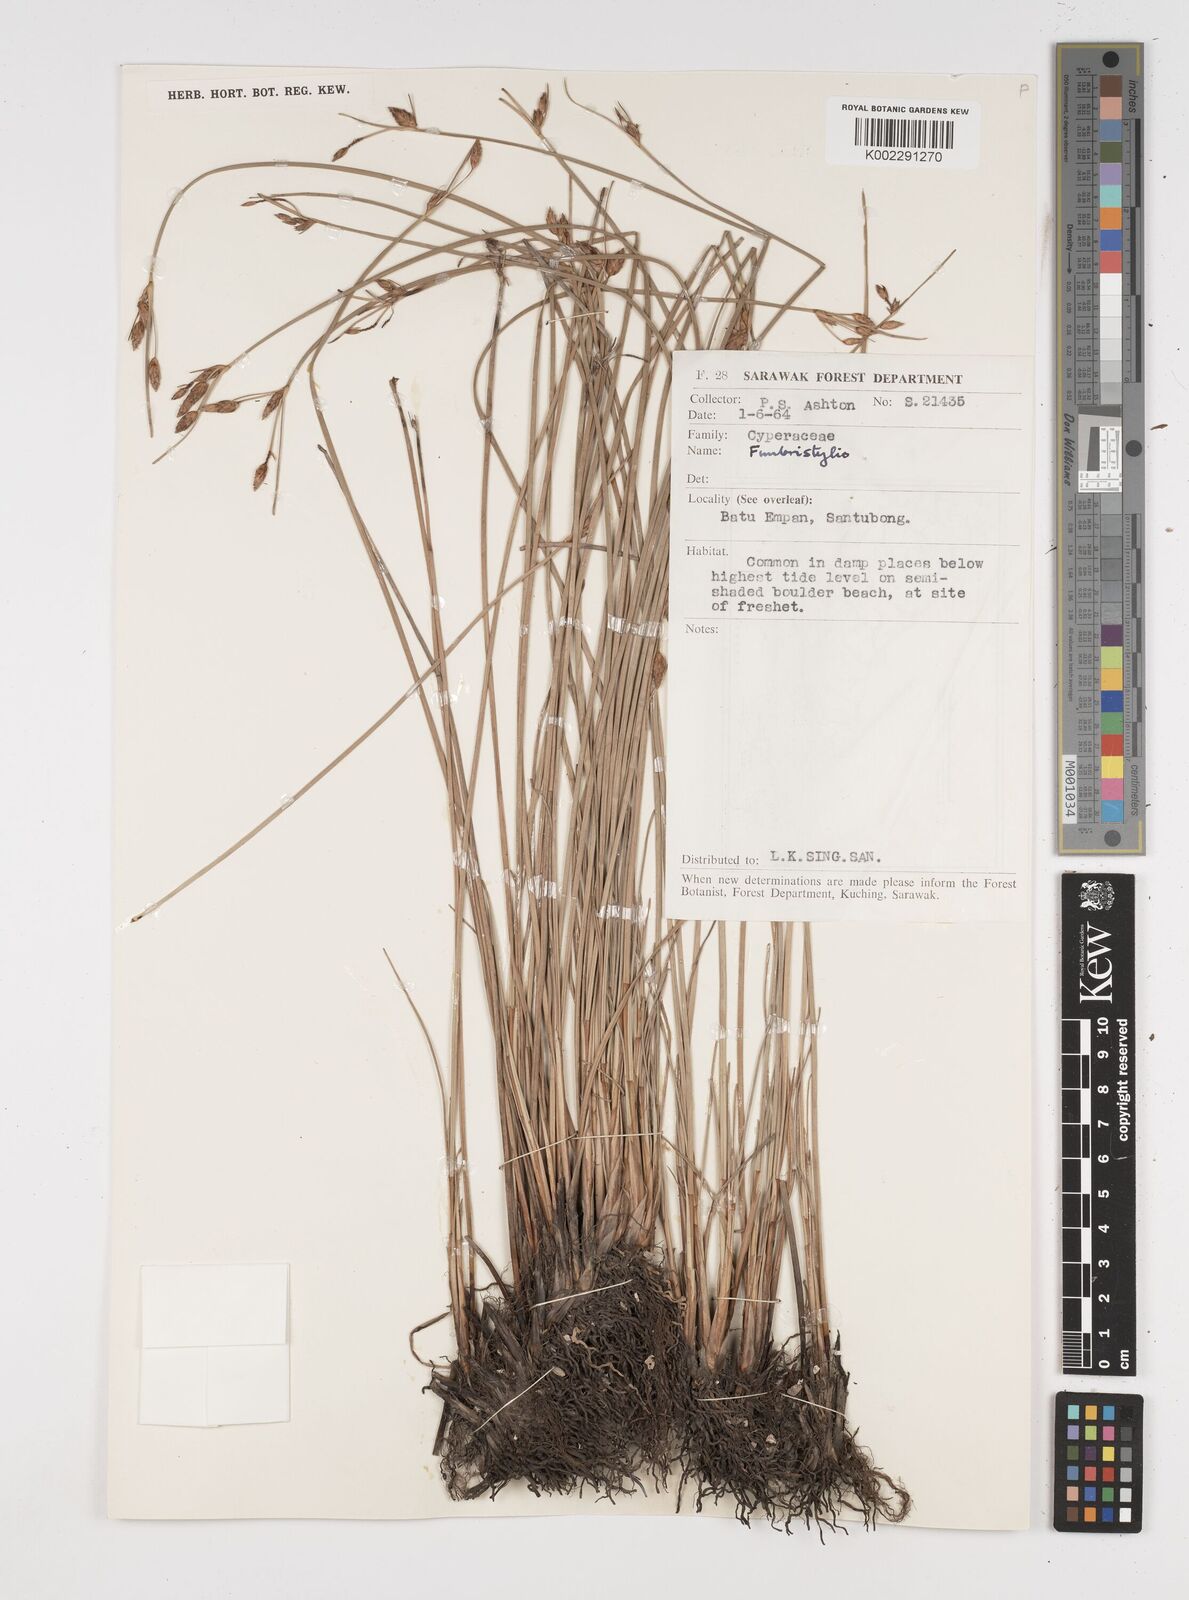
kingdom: Plantae
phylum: Tracheophyta
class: Liliopsida
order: Poales
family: Cyperaceae
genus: Fimbristylis
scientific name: Fimbristylis
